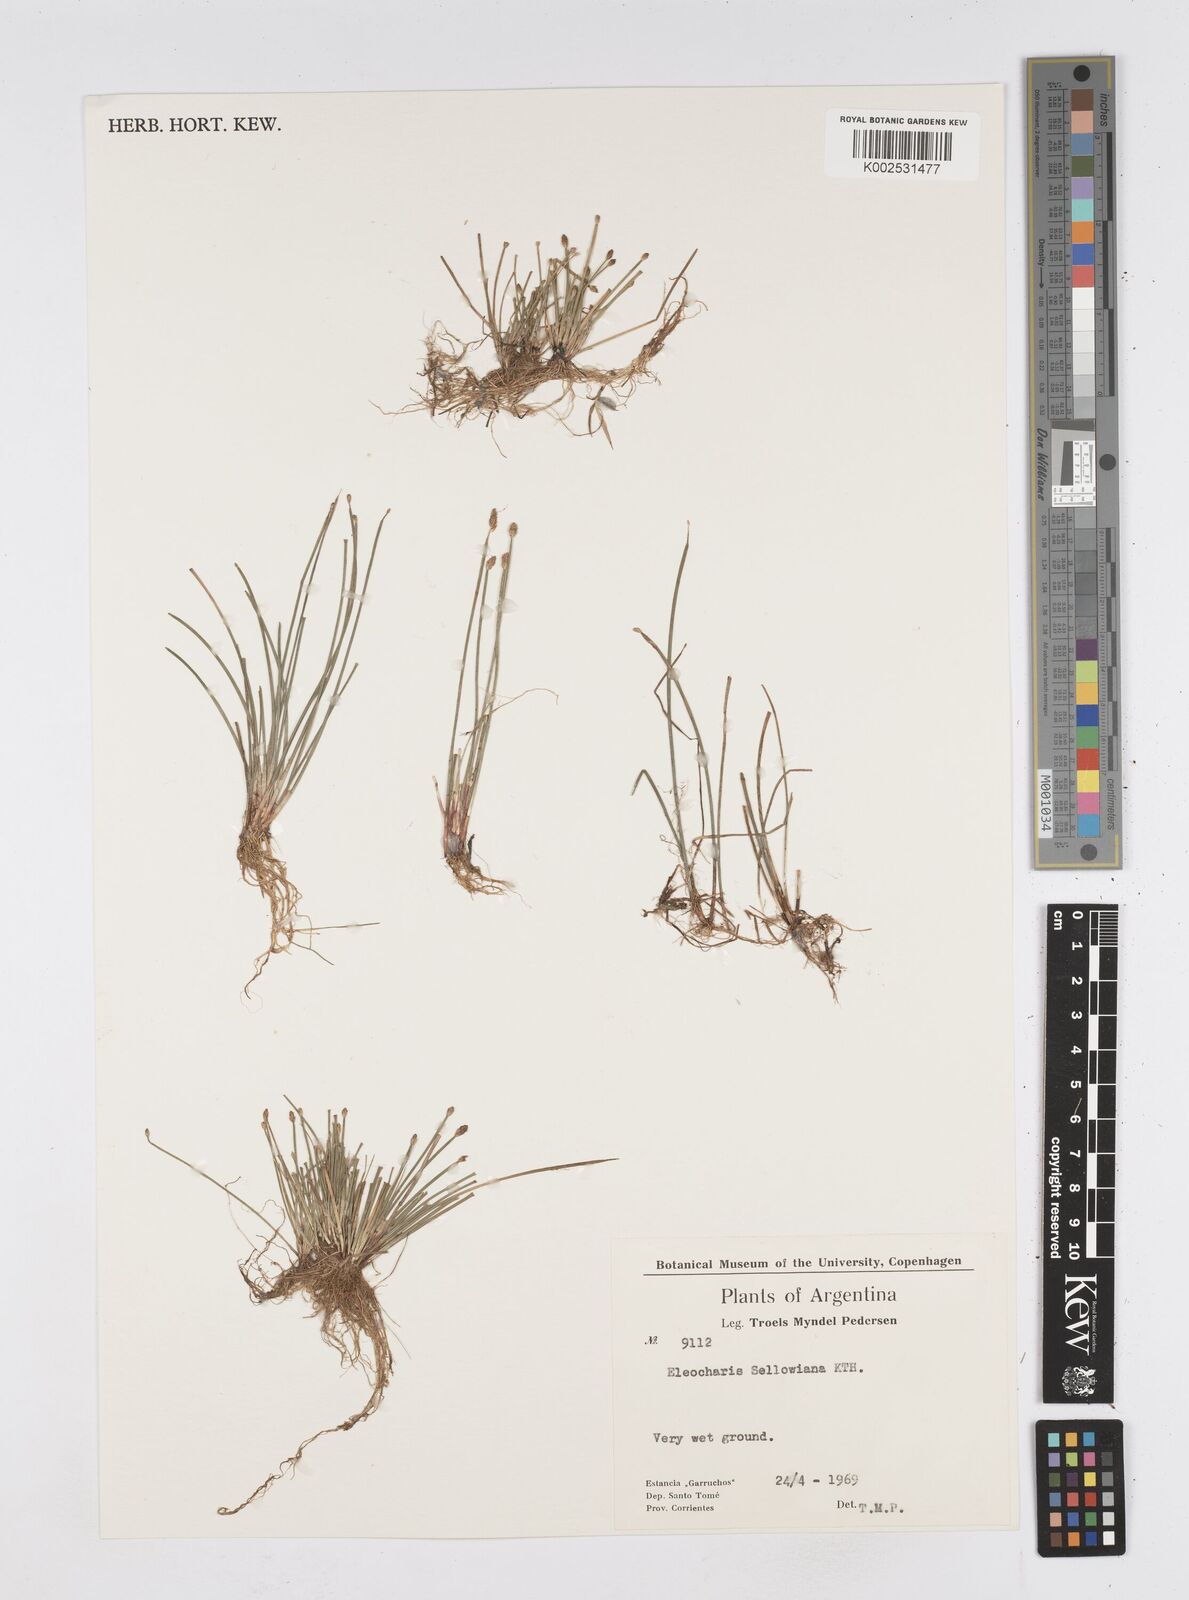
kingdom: Plantae
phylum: Tracheophyta
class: Liliopsida
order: Poales
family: Cyperaceae
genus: Eleocharis
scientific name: Eleocharis sellowiana
